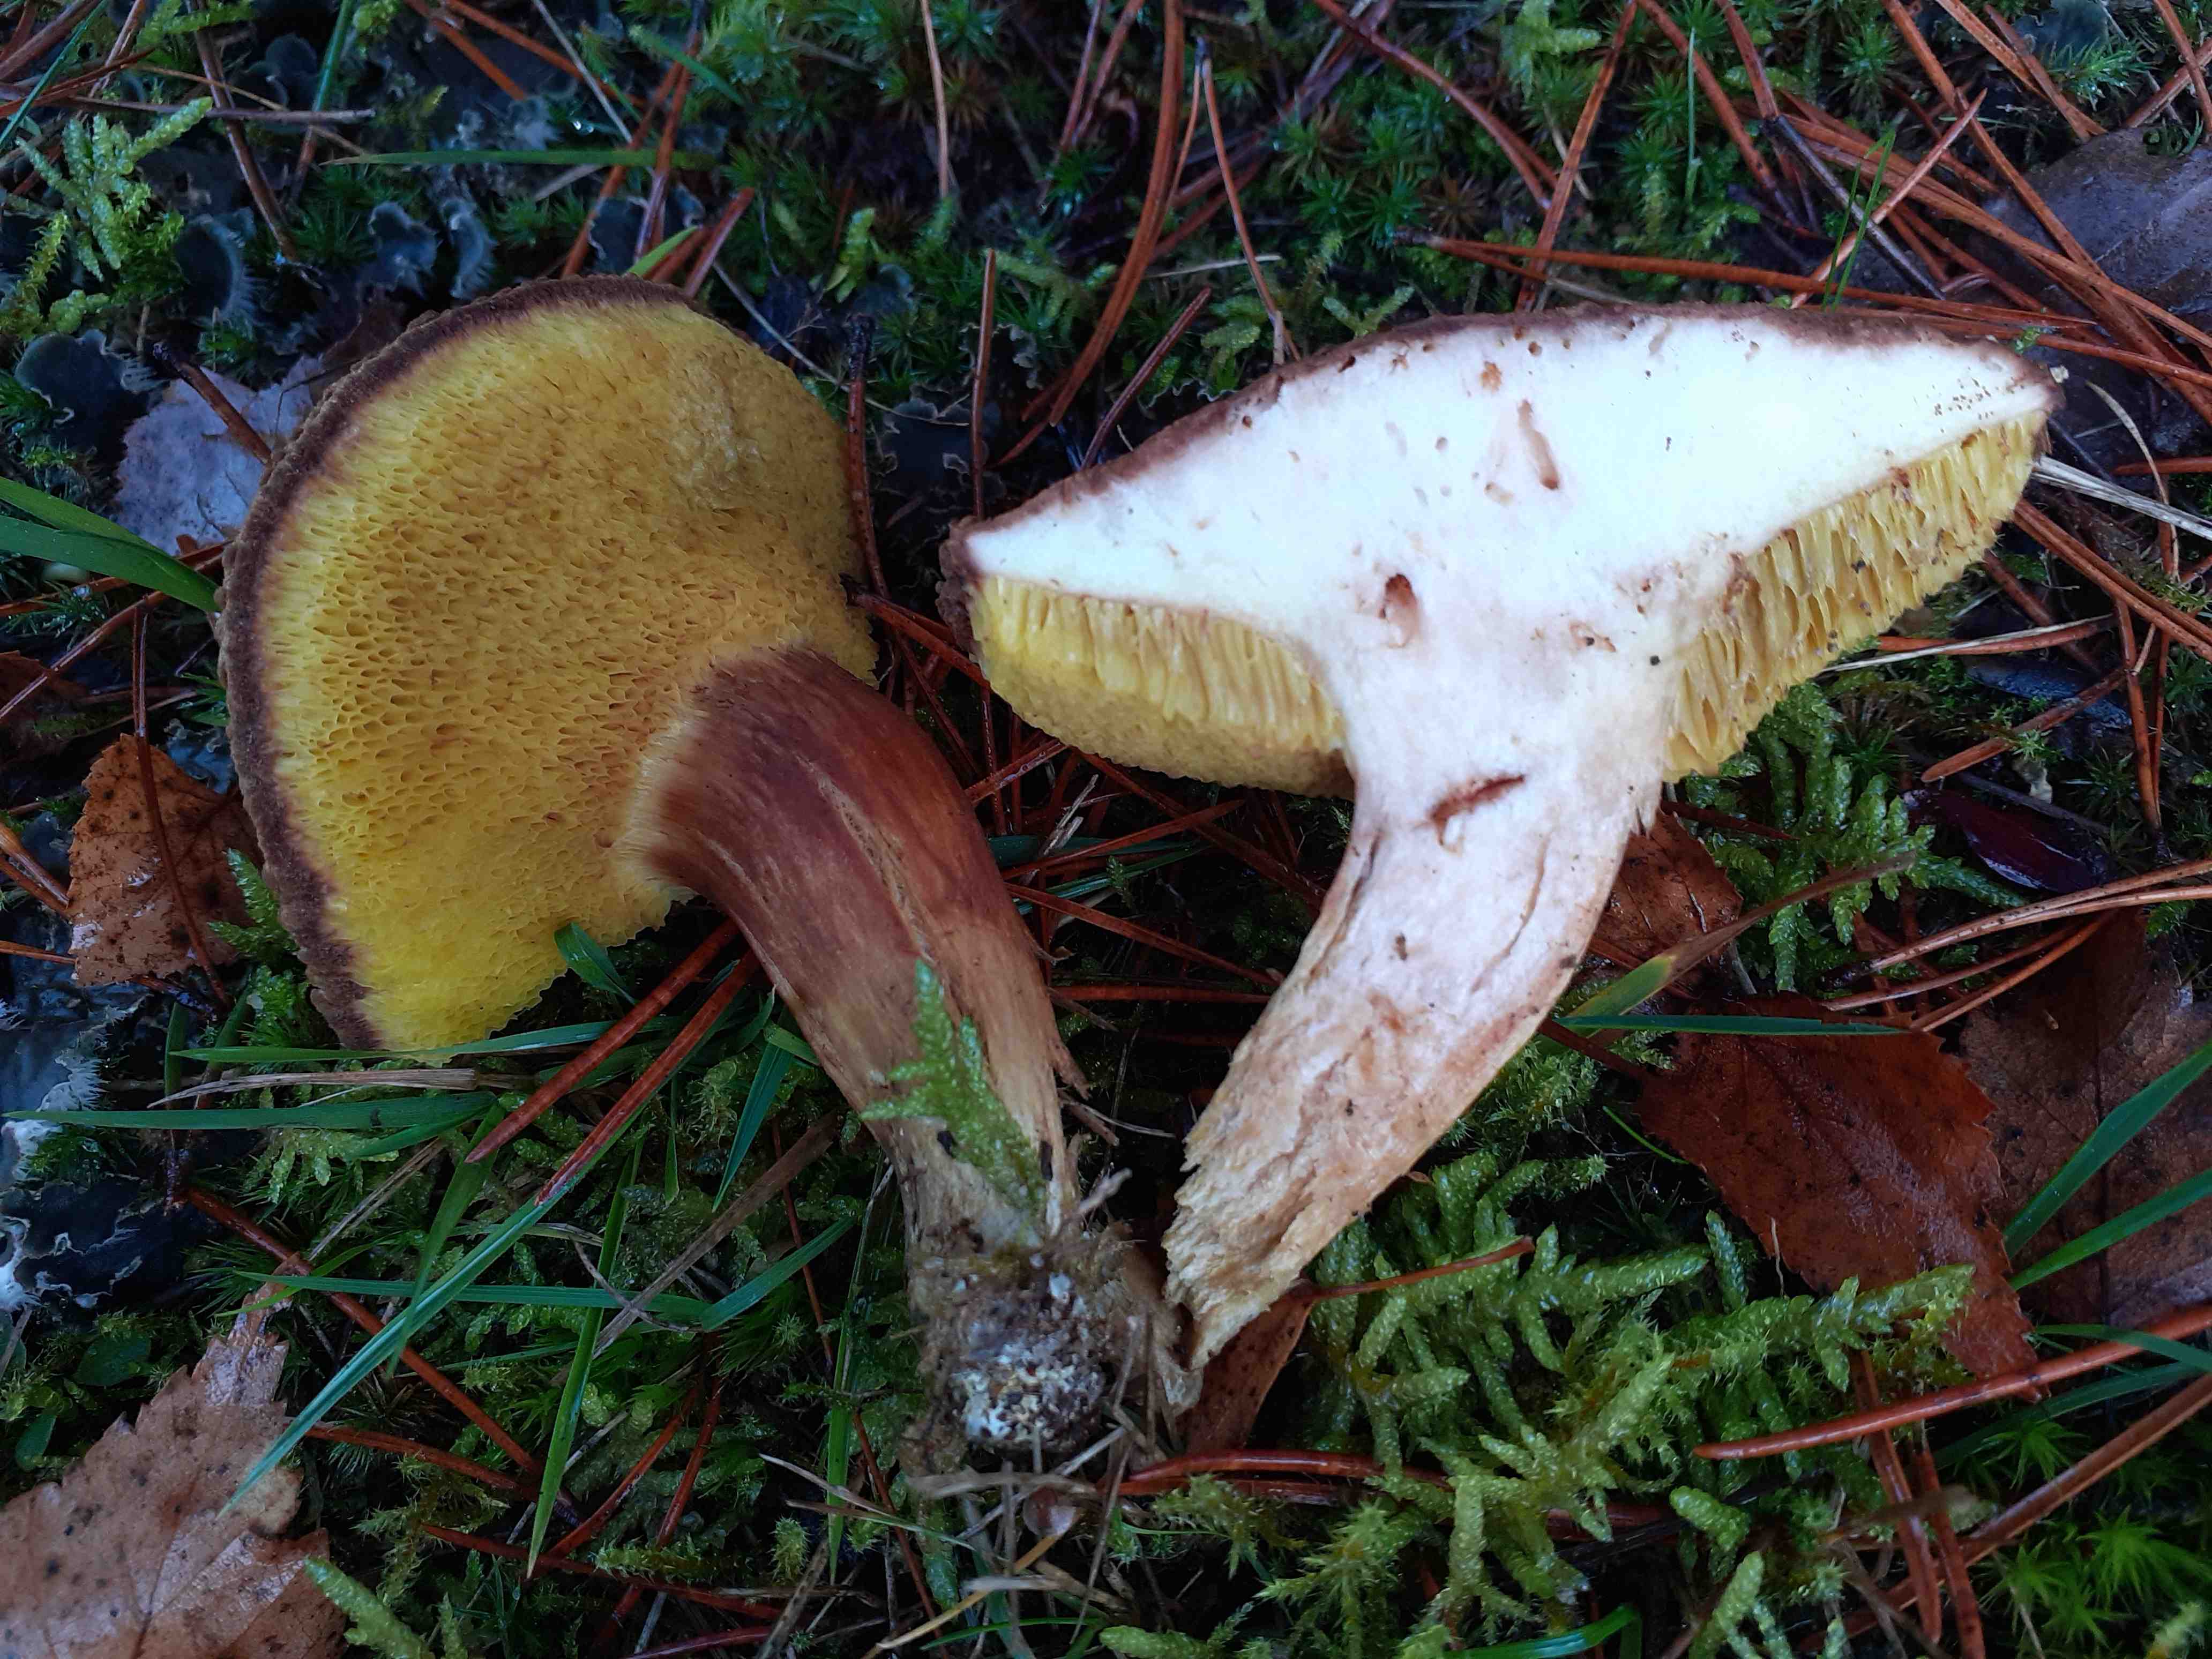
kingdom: Fungi
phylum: Basidiomycota
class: Agaricomycetes
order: Boletales
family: Boletaceae
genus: Xerocomus
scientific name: Xerocomus ferrugineus
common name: vaskeskinds-rørhat
